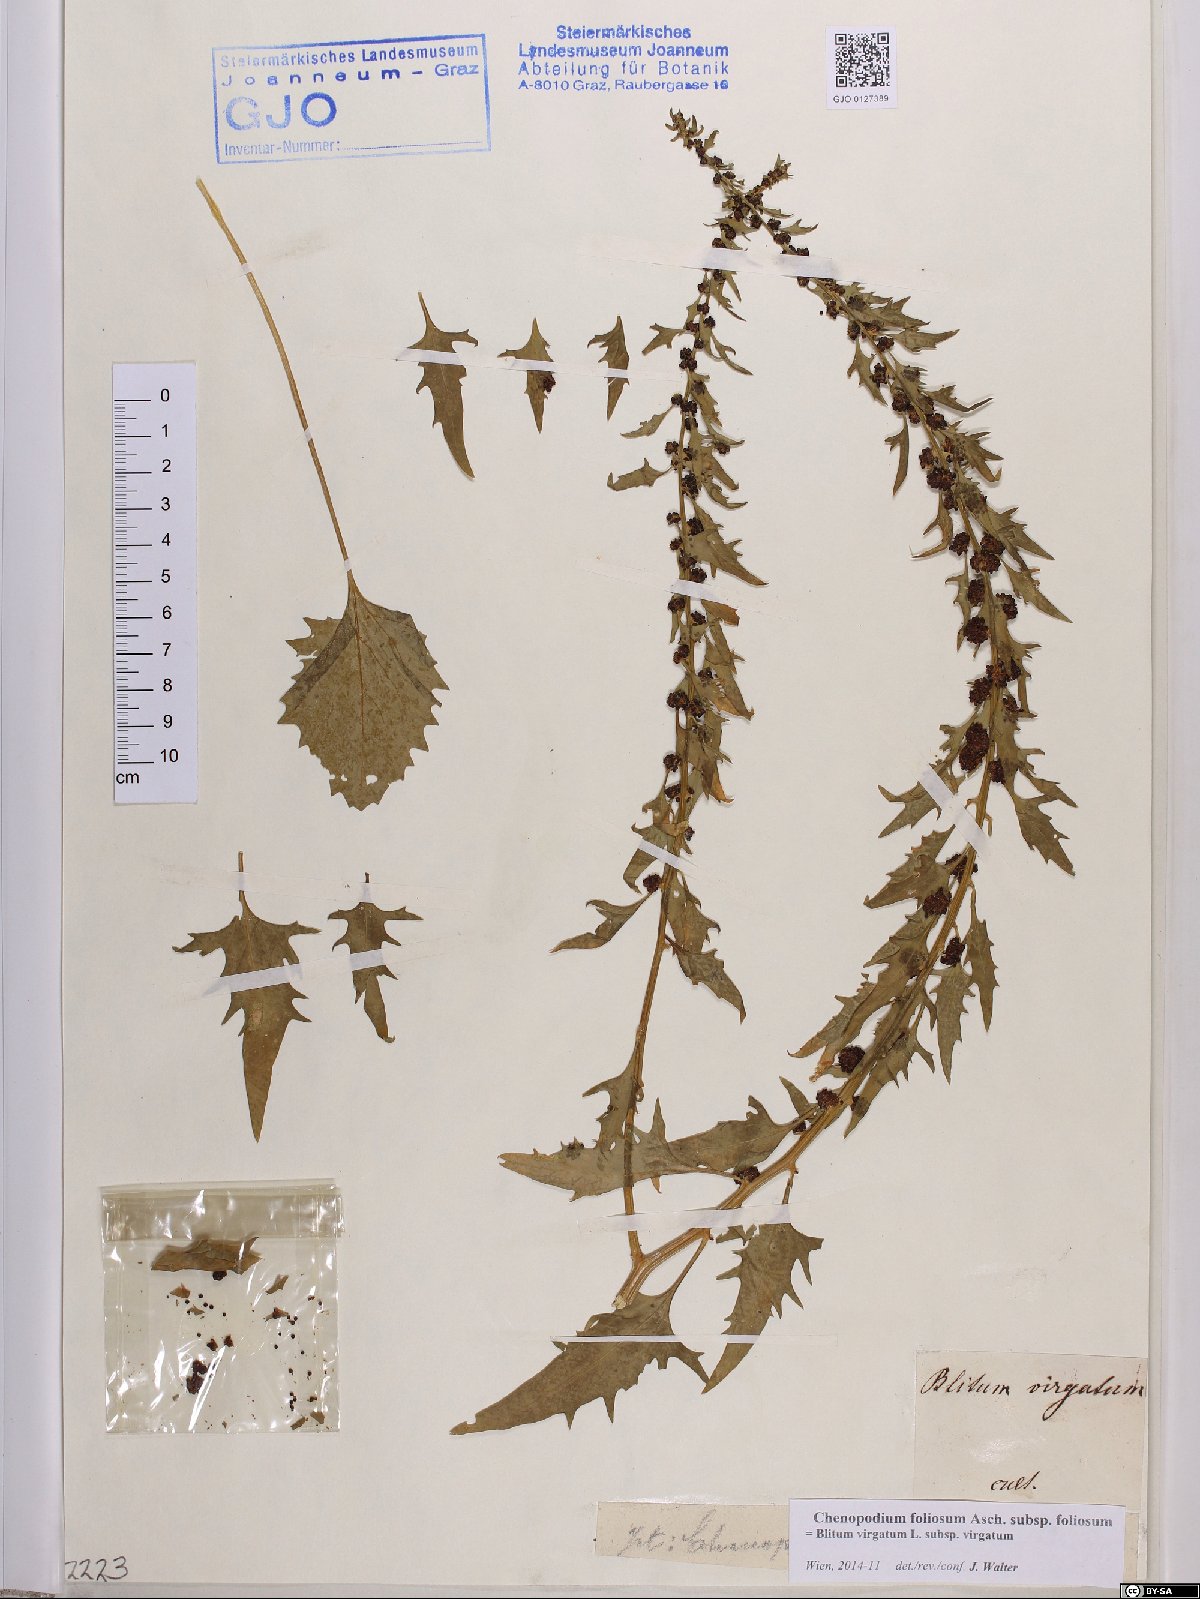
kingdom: Plantae
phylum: Tracheophyta
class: Magnoliopsida
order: Caryophyllales
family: Amaranthaceae
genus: Blitum
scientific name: Blitum virgatum
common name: Strawberry goosefoot
